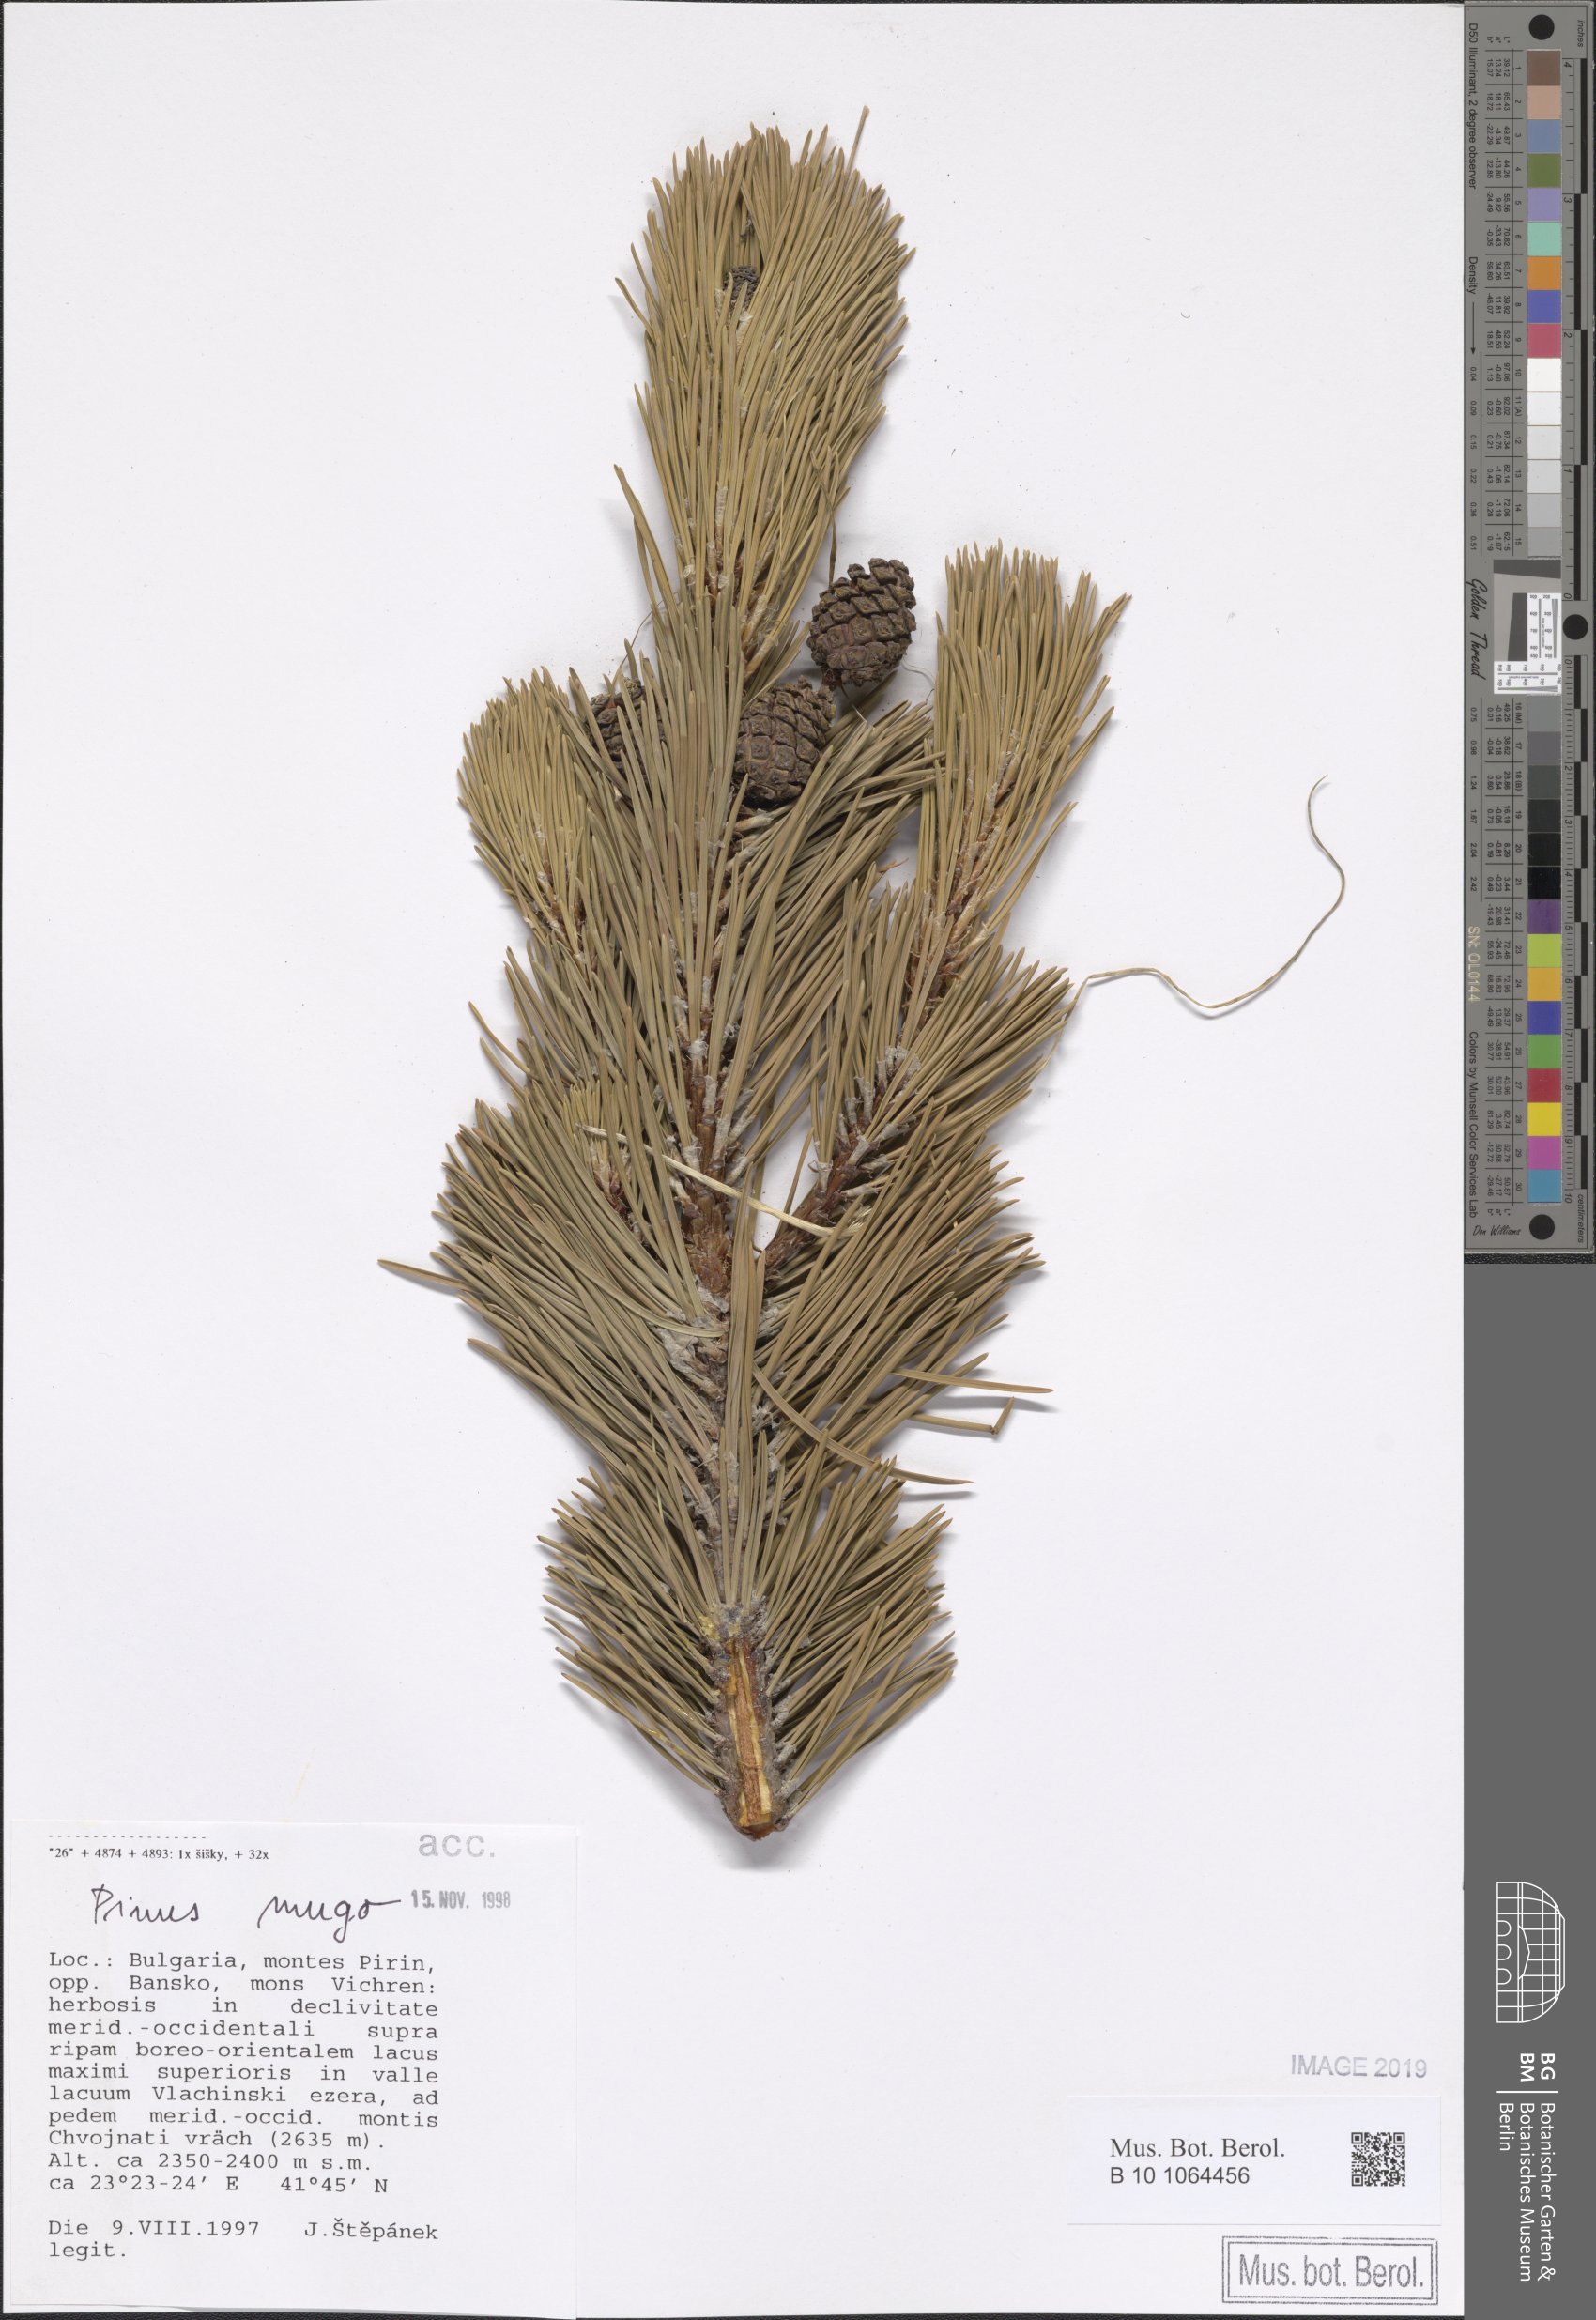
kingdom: Plantae
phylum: Tracheophyta
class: Pinopsida
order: Pinales
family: Pinaceae
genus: Pinus
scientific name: Pinus mugo
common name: Mugo pine
